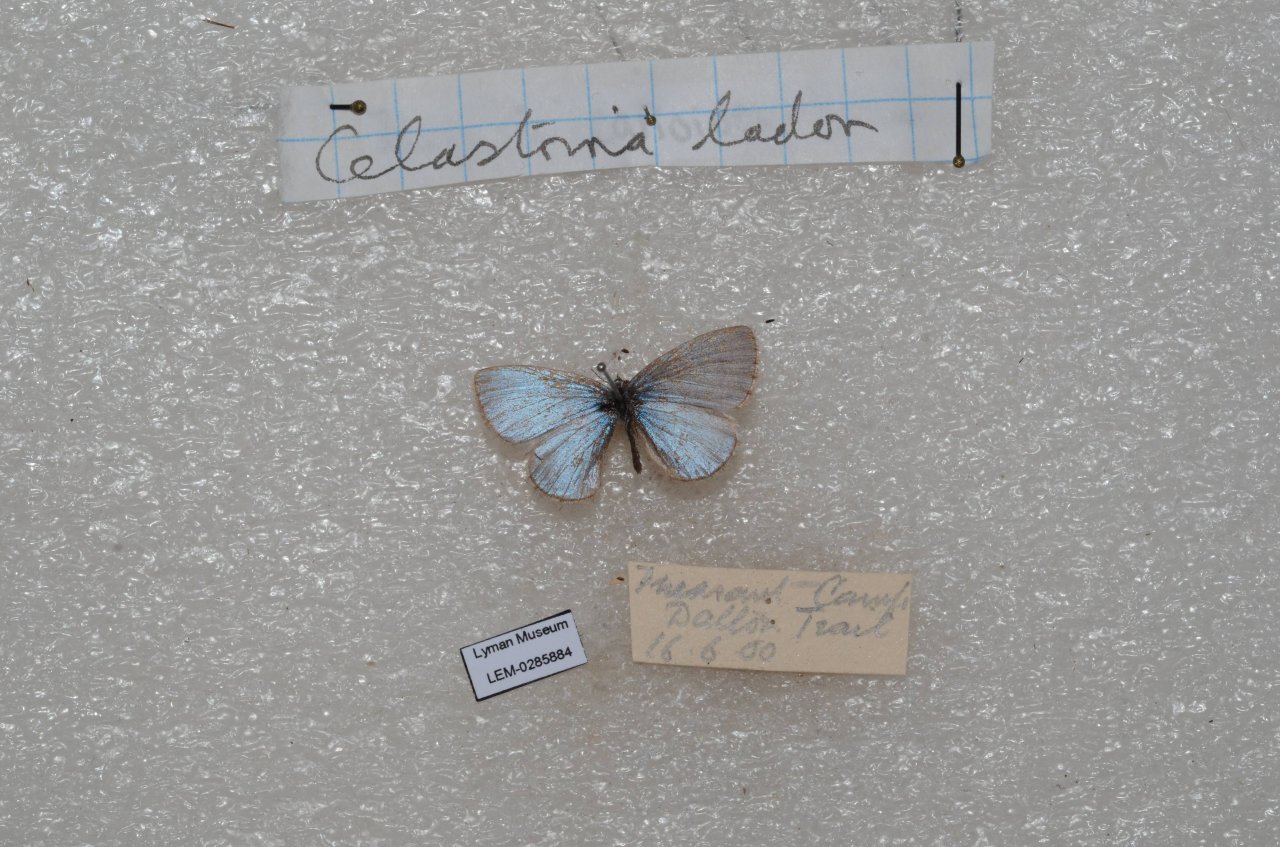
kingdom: Animalia
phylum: Arthropoda
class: Insecta
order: Lepidoptera
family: Lycaenidae
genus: Celastrina
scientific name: Celastrina
